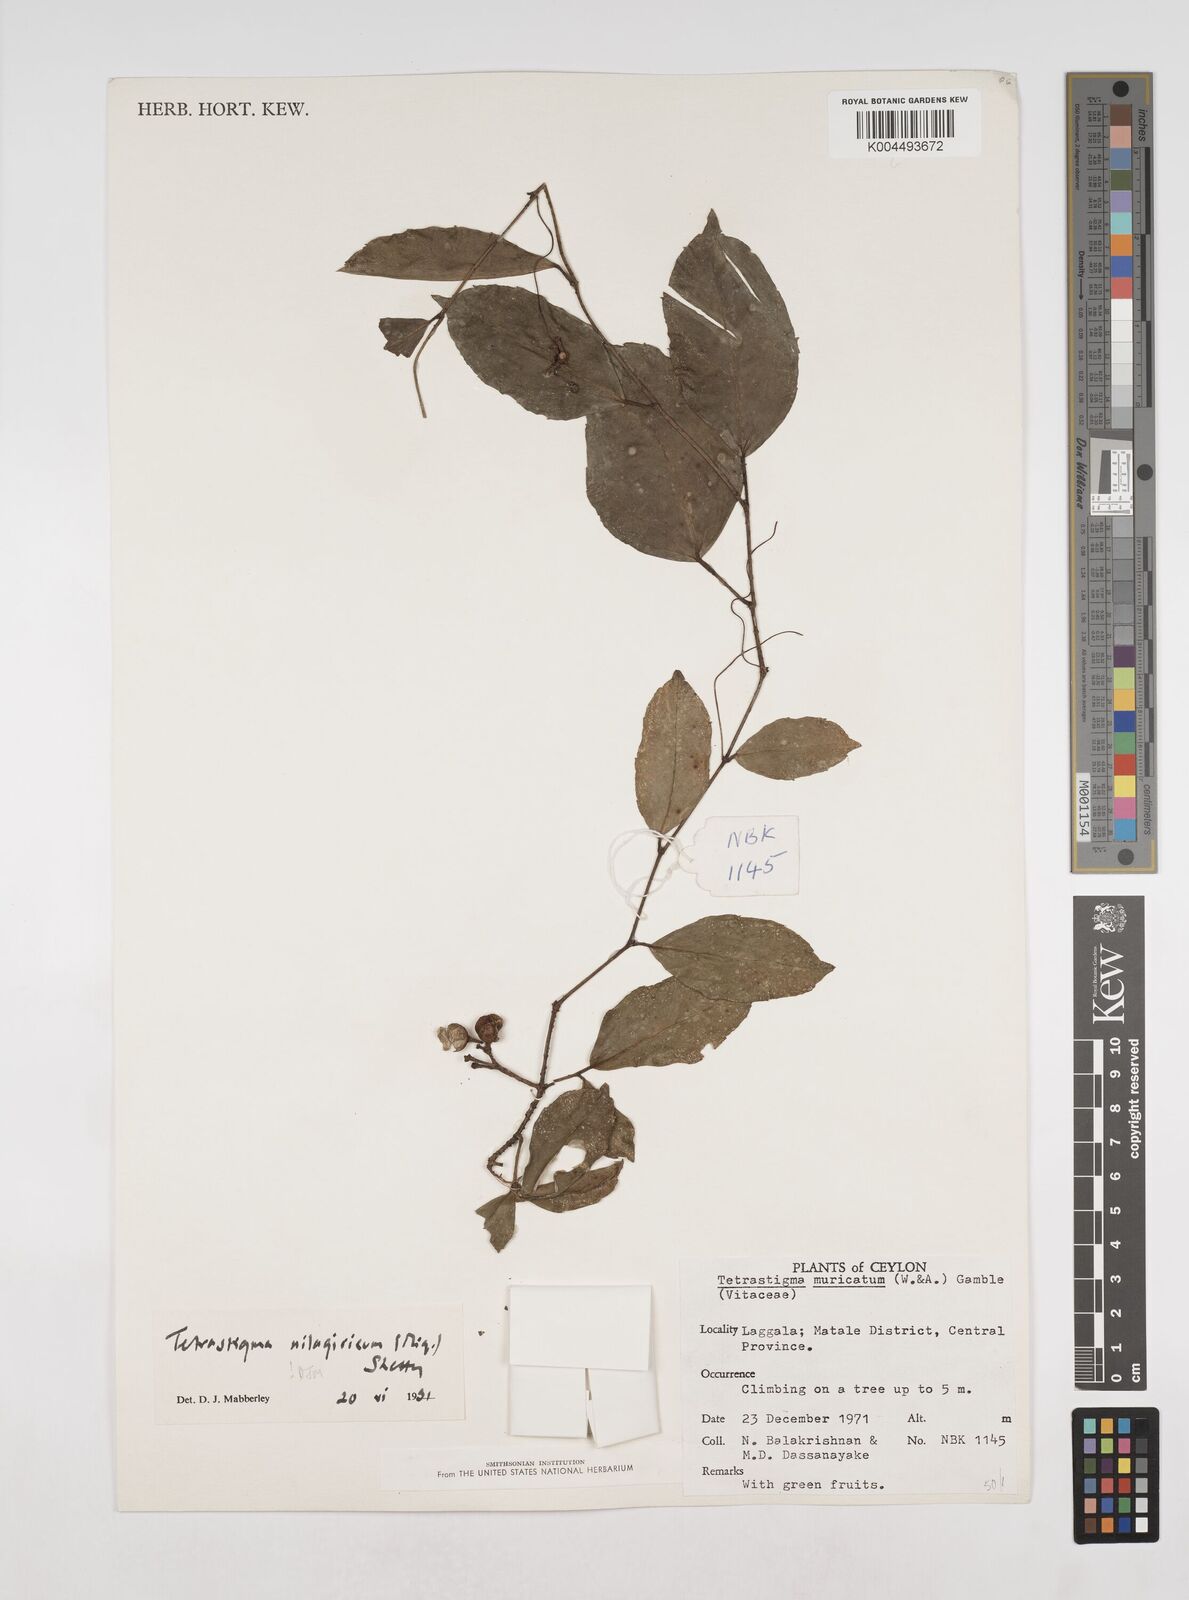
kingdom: Plantae
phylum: Tracheophyta
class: Magnoliopsida
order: Vitales
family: Vitaceae
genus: Tetrastigma
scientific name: Tetrastigma leucostaphylum
